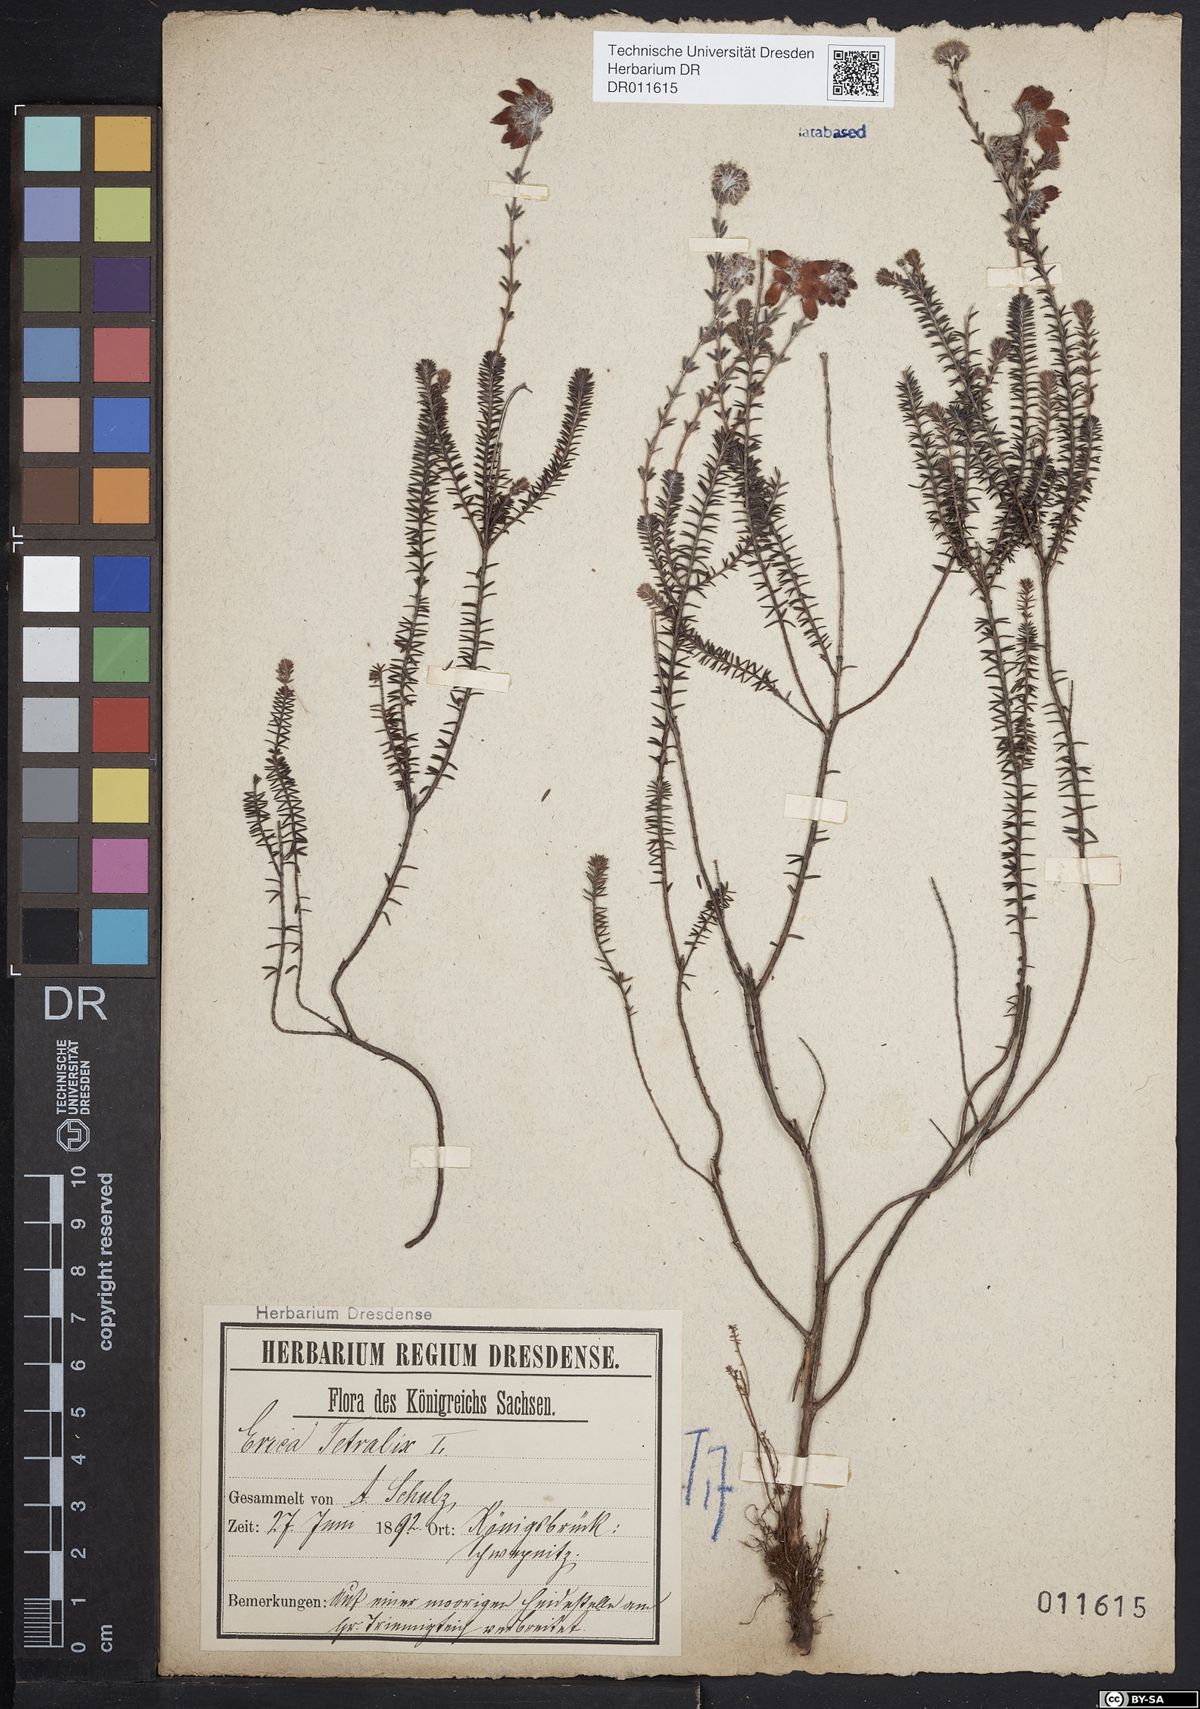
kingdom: Plantae
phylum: Tracheophyta
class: Magnoliopsida
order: Ericales
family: Ericaceae
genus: Erica
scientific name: Erica tetralix
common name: Cross-leaved heath
